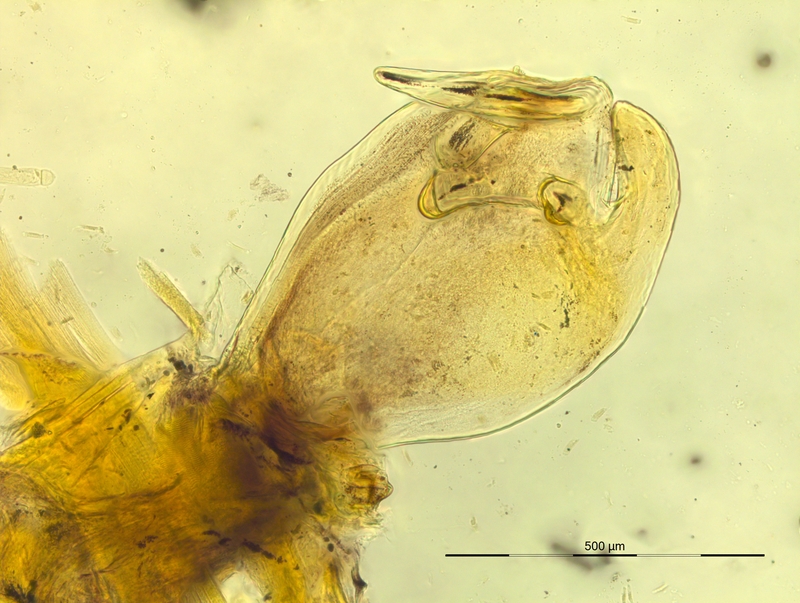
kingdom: Animalia
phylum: Arthropoda
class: Diplopoda
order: Chordeumatida
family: Craspedosomatidae
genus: Prionosoma
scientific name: Prionosoma canestrinii
